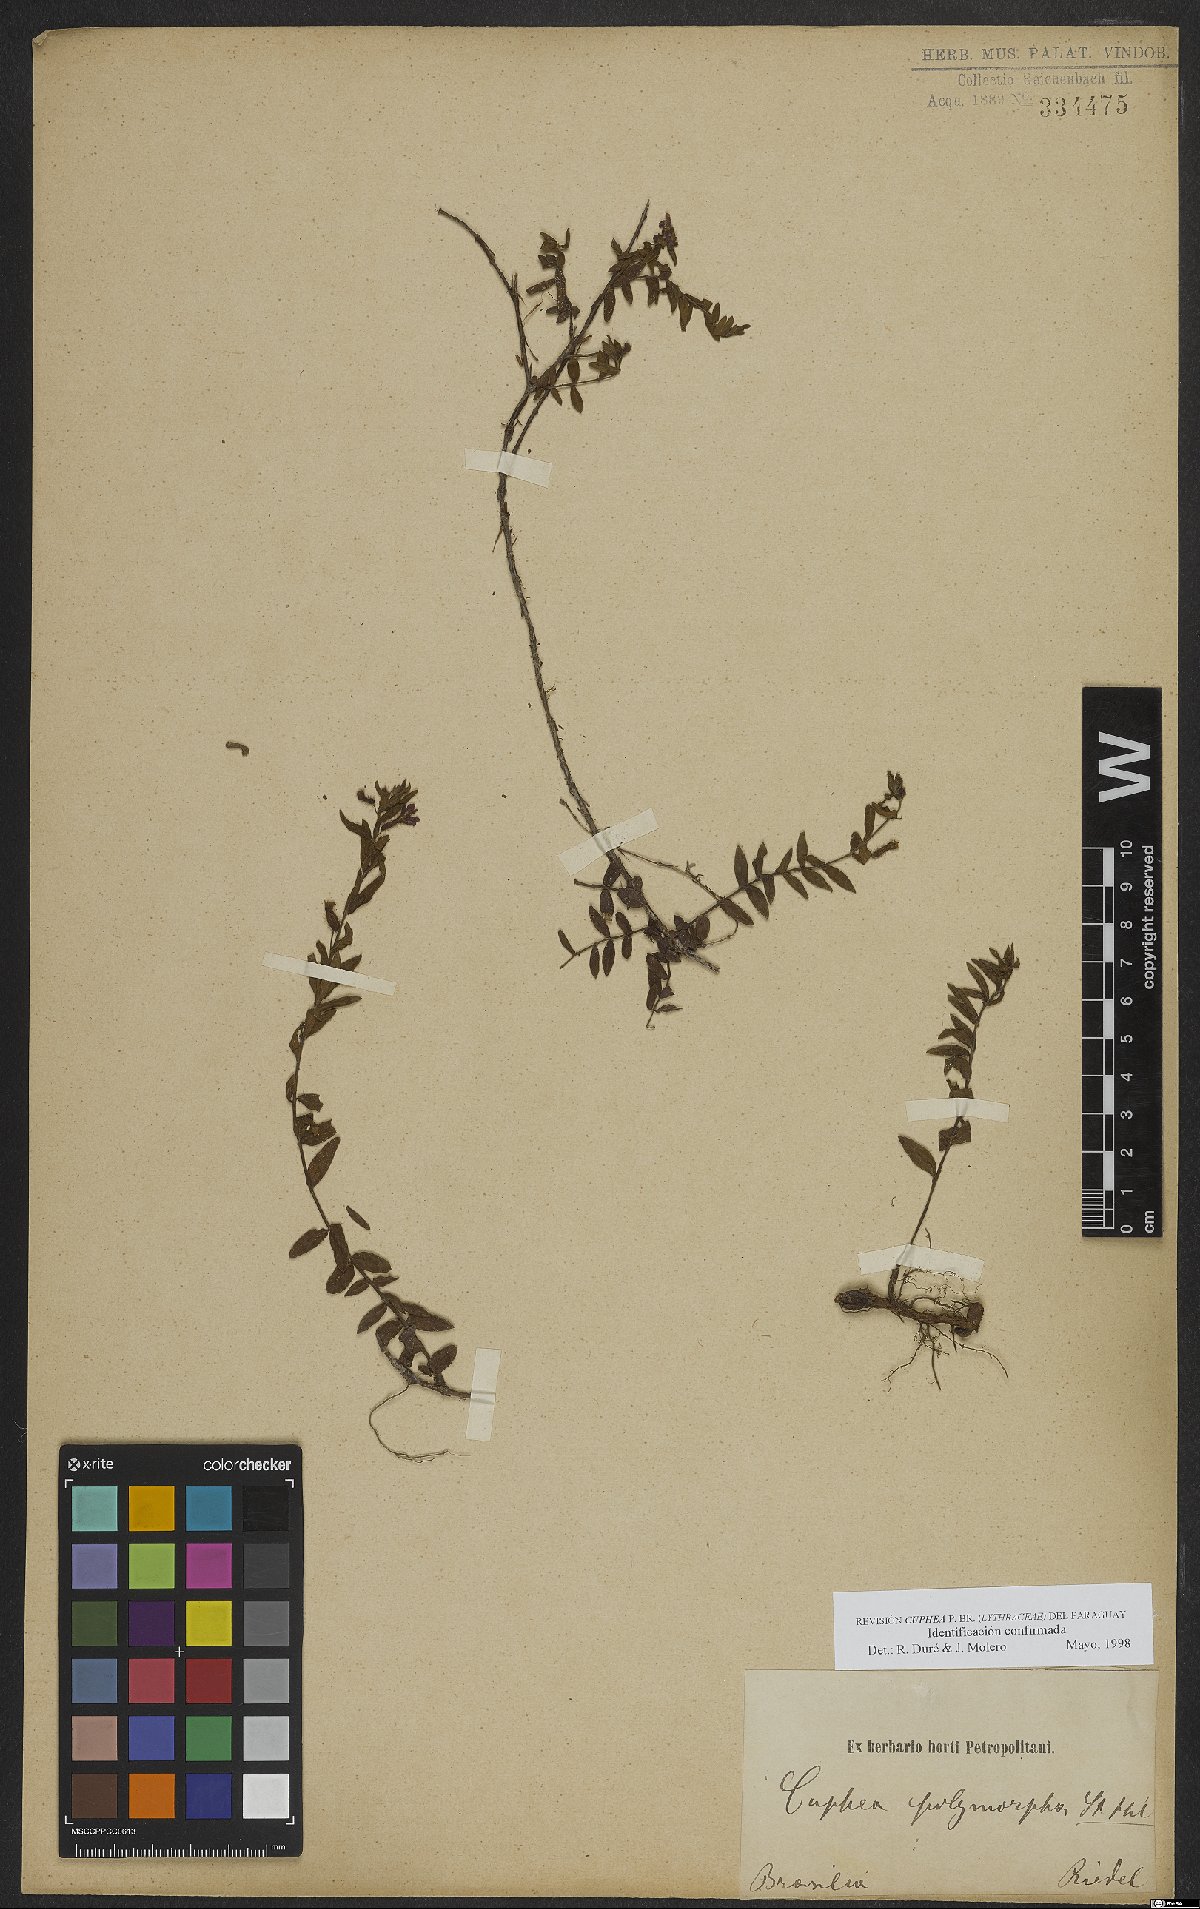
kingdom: Plantae
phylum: Tracheophyta
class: Magnoliopsida
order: Myrtales
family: Lythraceae
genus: Cuphea
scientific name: Cuphea polymorpha
